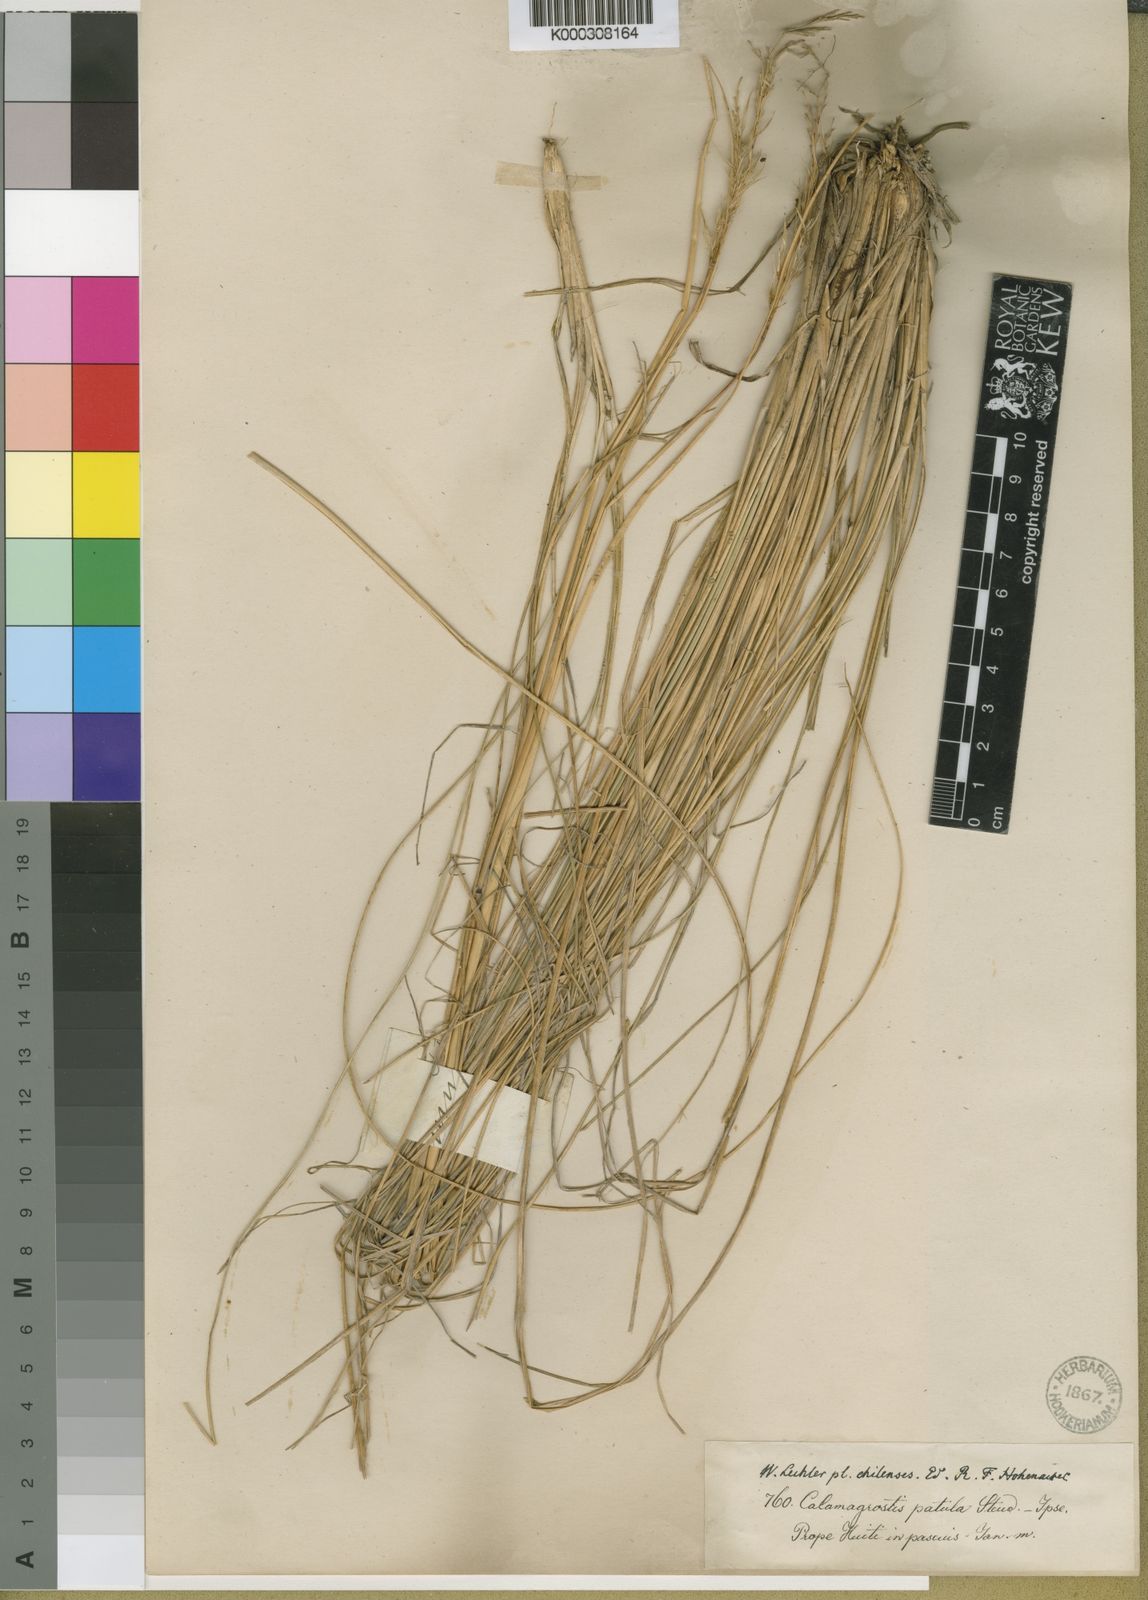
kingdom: Plantae
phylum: Tracheophyta
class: Liliopsida
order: Poales
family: Poaceae
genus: Cortaderia
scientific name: Cortaderia egmontiana
